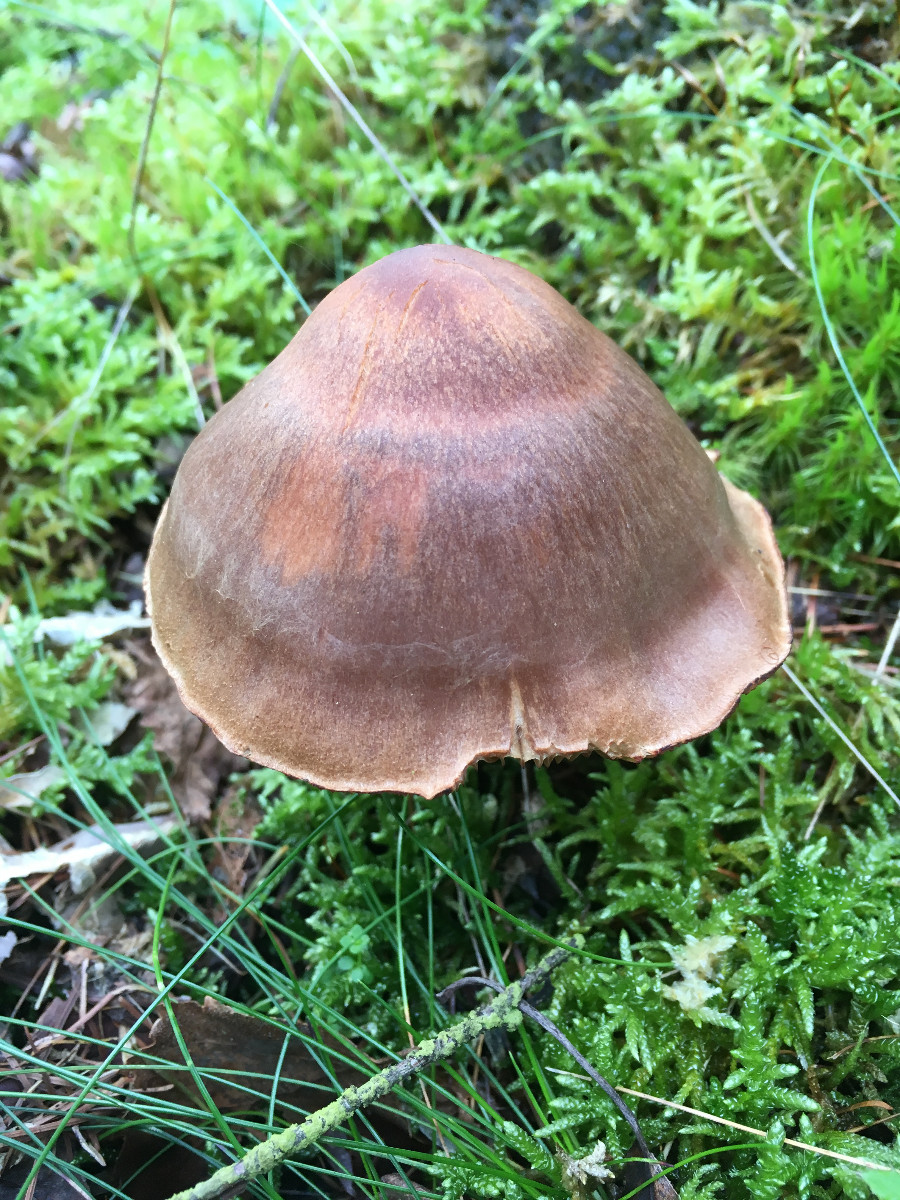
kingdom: Fungi
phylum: Basidiomycota
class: Agaricomycetes
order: Agaricales
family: Cortinariaceae
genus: Cortinarius
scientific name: Cortinarius
